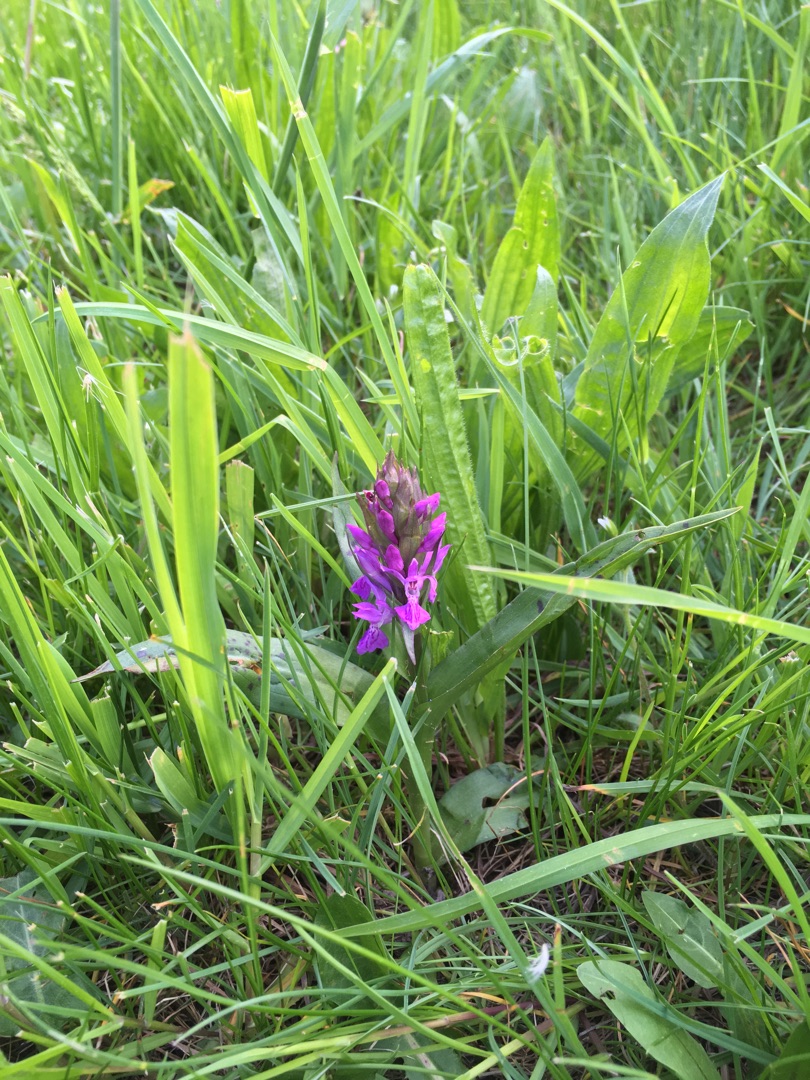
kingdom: Plantae
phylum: Tracheophyta
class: Liliopsida
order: Asparagales
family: Orchidaceae
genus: Dactylorhiza
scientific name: Dactylorhiza majalis
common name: Maj-gøgeurt
